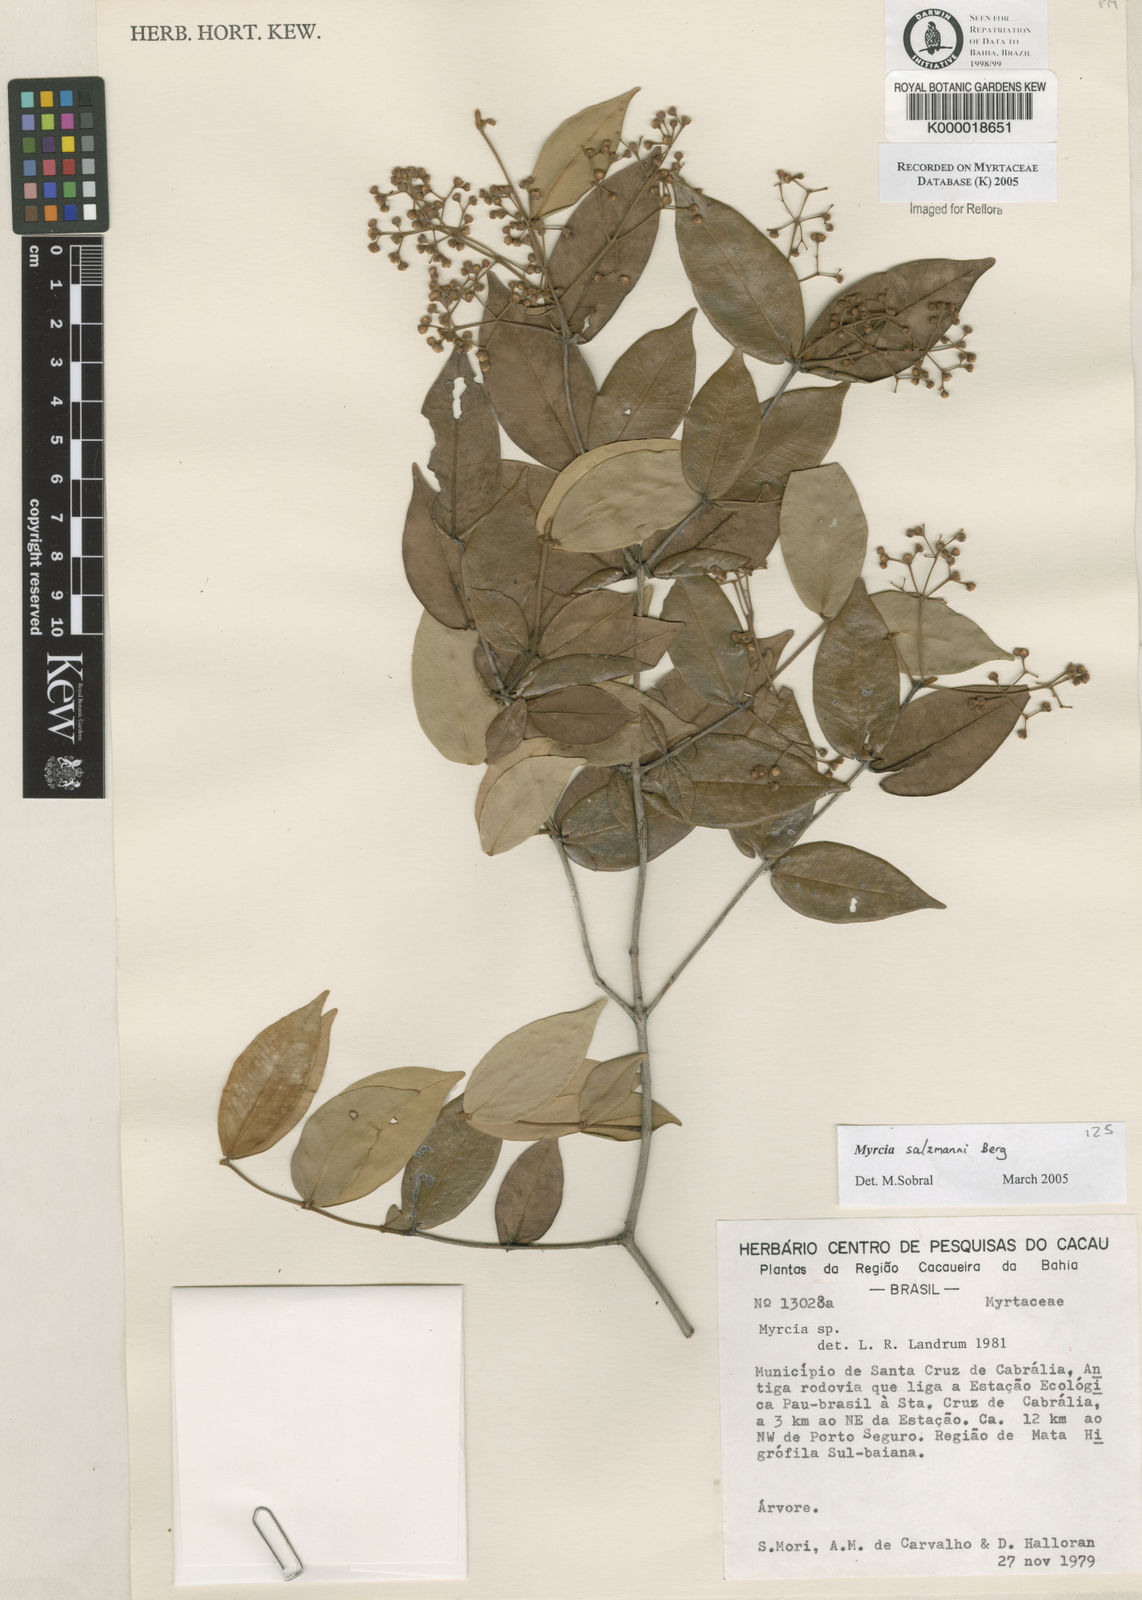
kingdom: Plantae
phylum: Tracheophyta
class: Magnoliopsida
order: Myrtales
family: Myrtaceae
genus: Myrcia
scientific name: Myrcia
